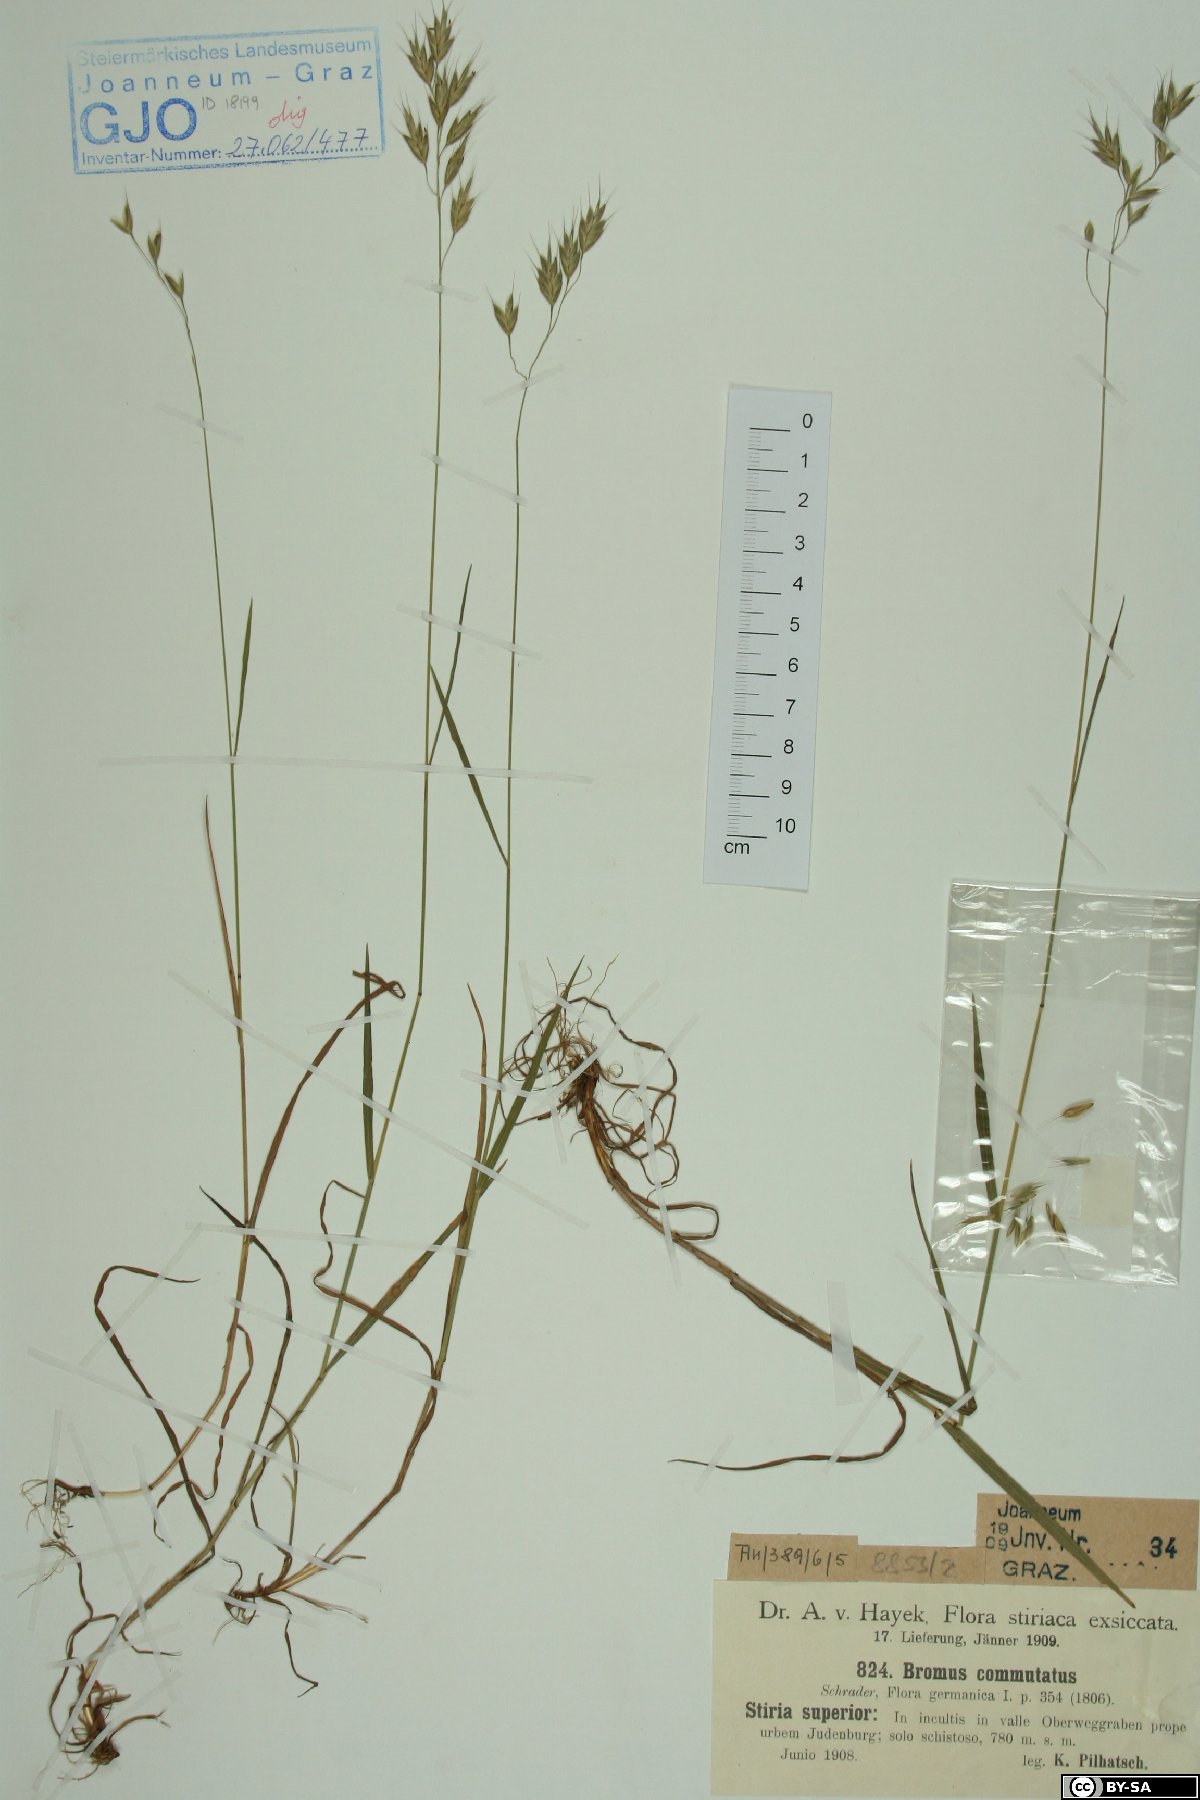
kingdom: Plantae
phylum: Tracheophyta
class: Liliopsida
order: Poales
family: Poaceae
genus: Bromus
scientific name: Bromus commutatus
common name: Meadow brome
